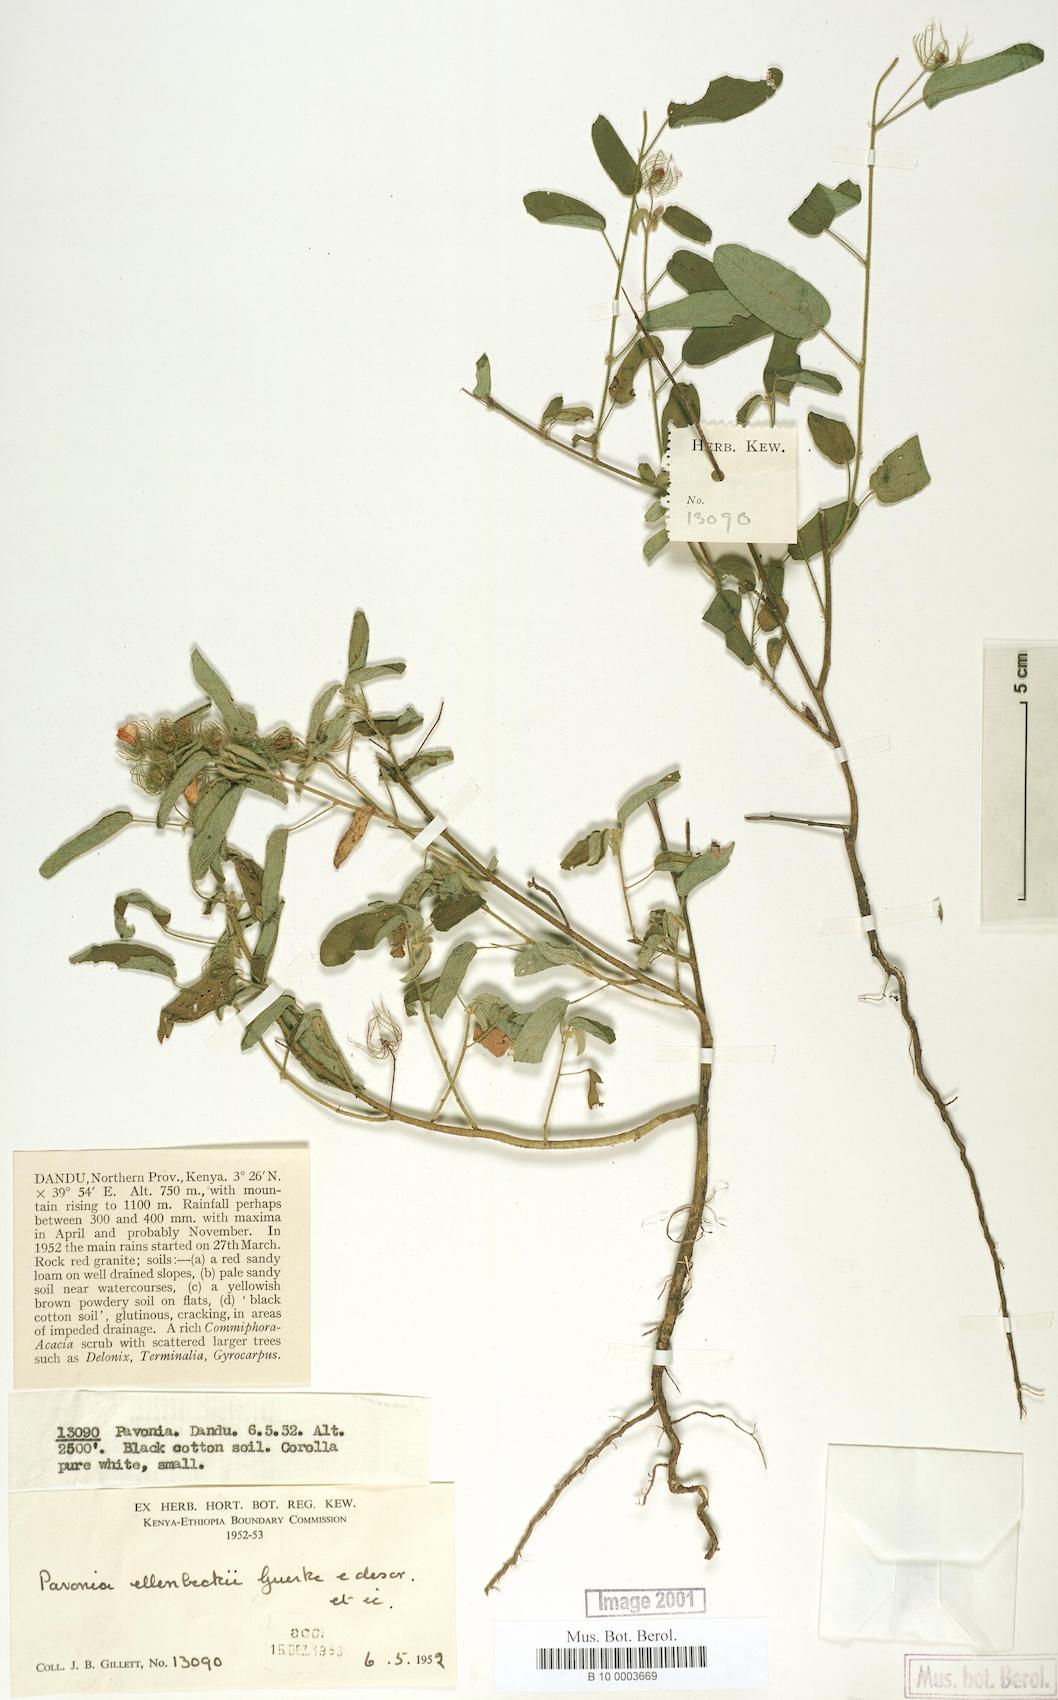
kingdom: Plantae
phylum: Tracheophyta
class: Magnoliopsida
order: Malvales
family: Malvaceae
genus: Pavonia
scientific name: Pavonia ellenbeckii
